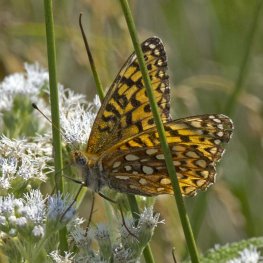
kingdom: Animalia
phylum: Arthropoda
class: Insecta
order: Lepidoptera
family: Nymphalidae
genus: Speyeria
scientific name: Speyeria atlantis
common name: Atlantis Fritillary
